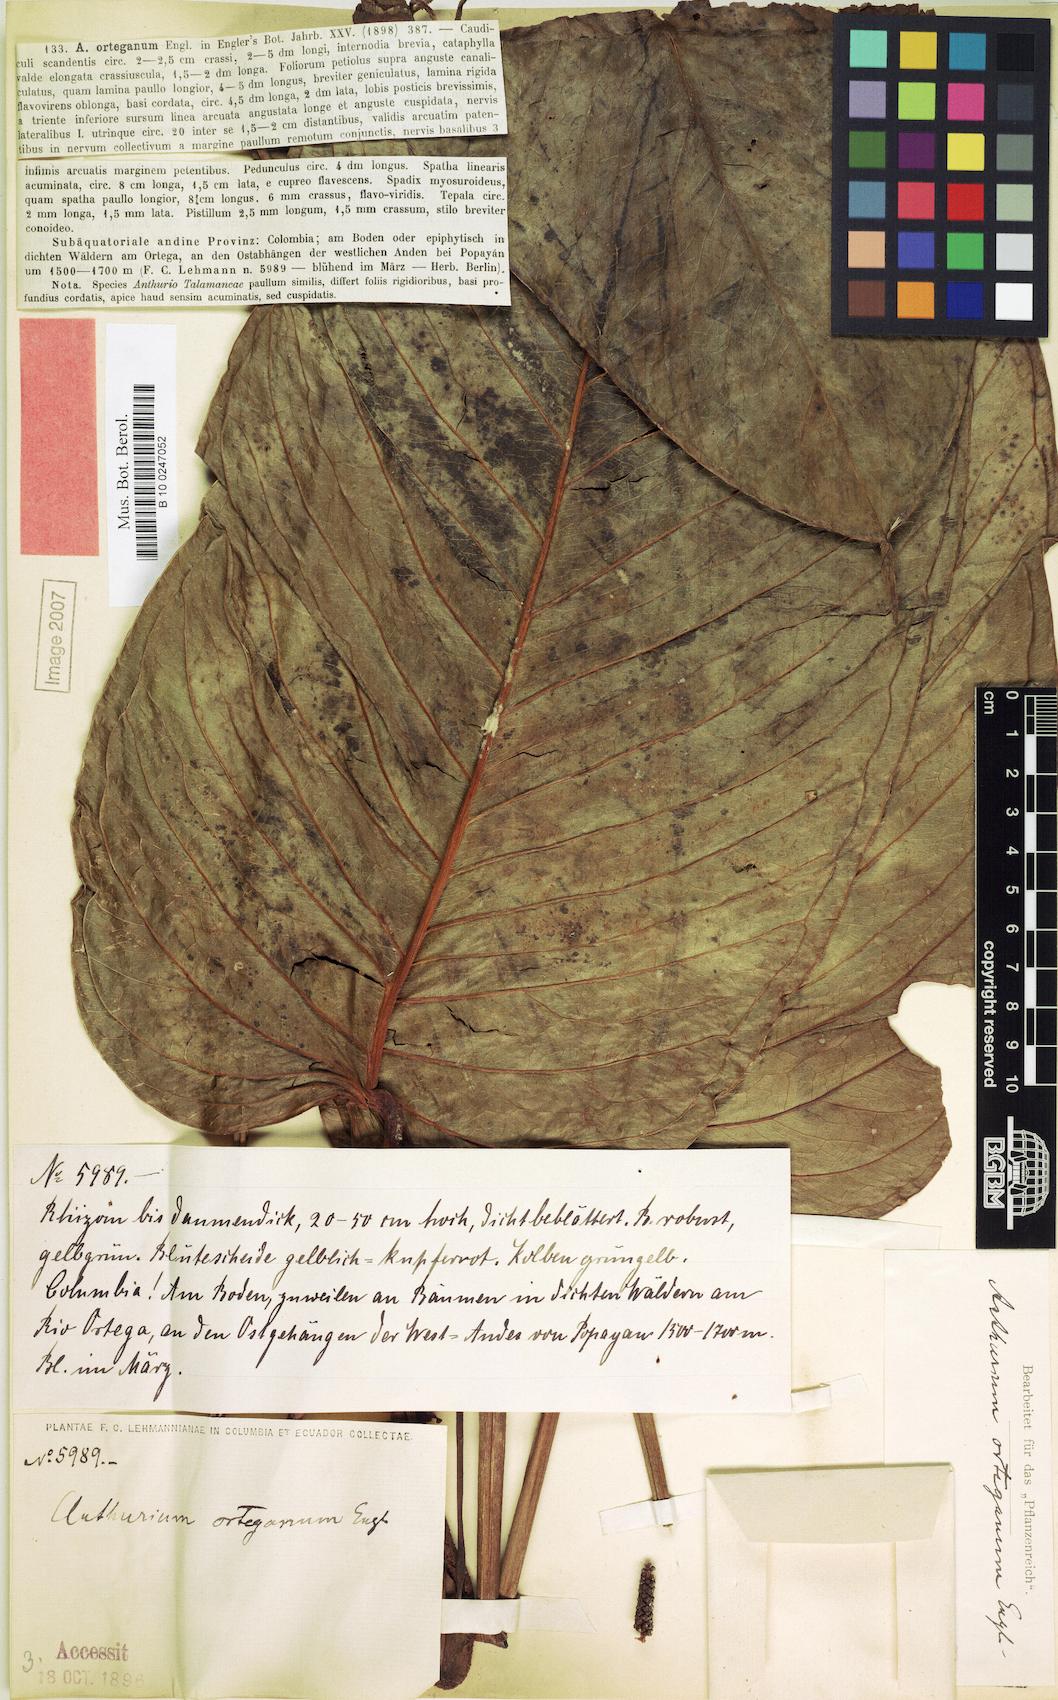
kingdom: Plantae
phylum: Tracheophyta
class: Liliopsida
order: Alismatales
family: Araceae
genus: Anthurium
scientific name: Anthurium talamancae
